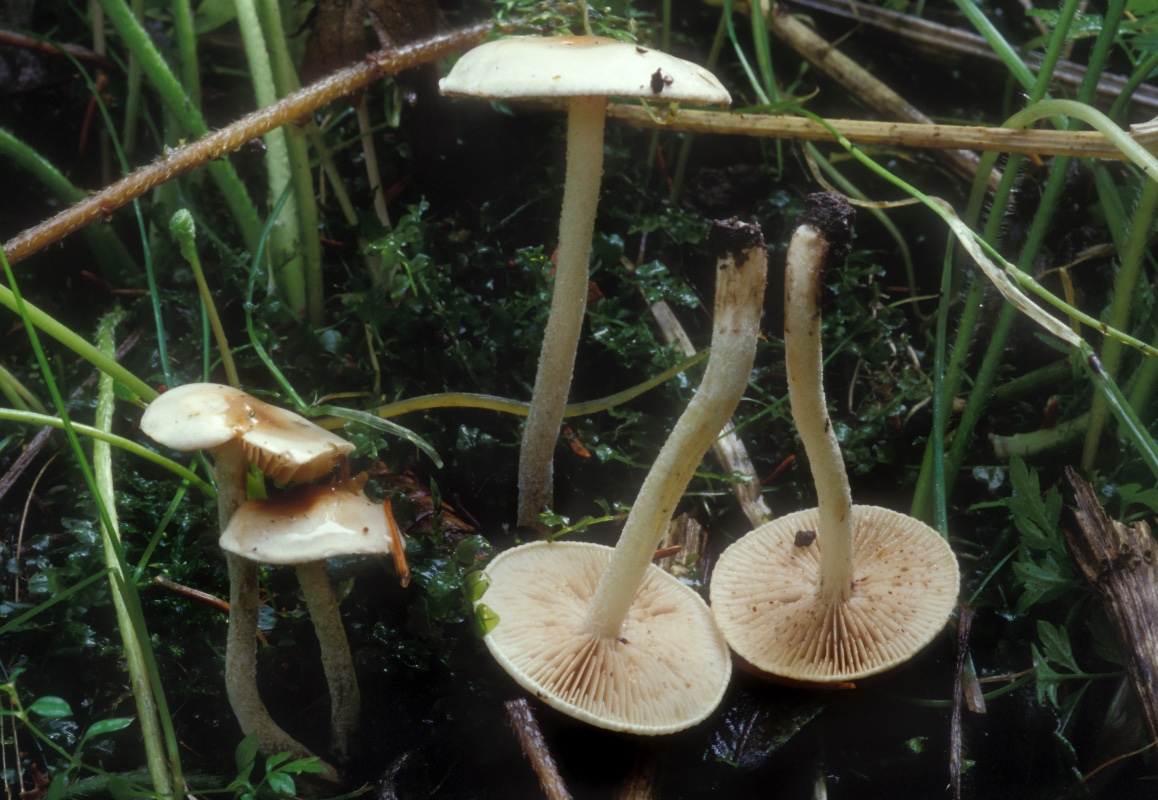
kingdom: Fungi
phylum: Basidiomycota
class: Agaricomycetes
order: Agaricales
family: Hymenogastraceae
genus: Hebeloma
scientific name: Hebeloma helodes
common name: rank tåreblad
